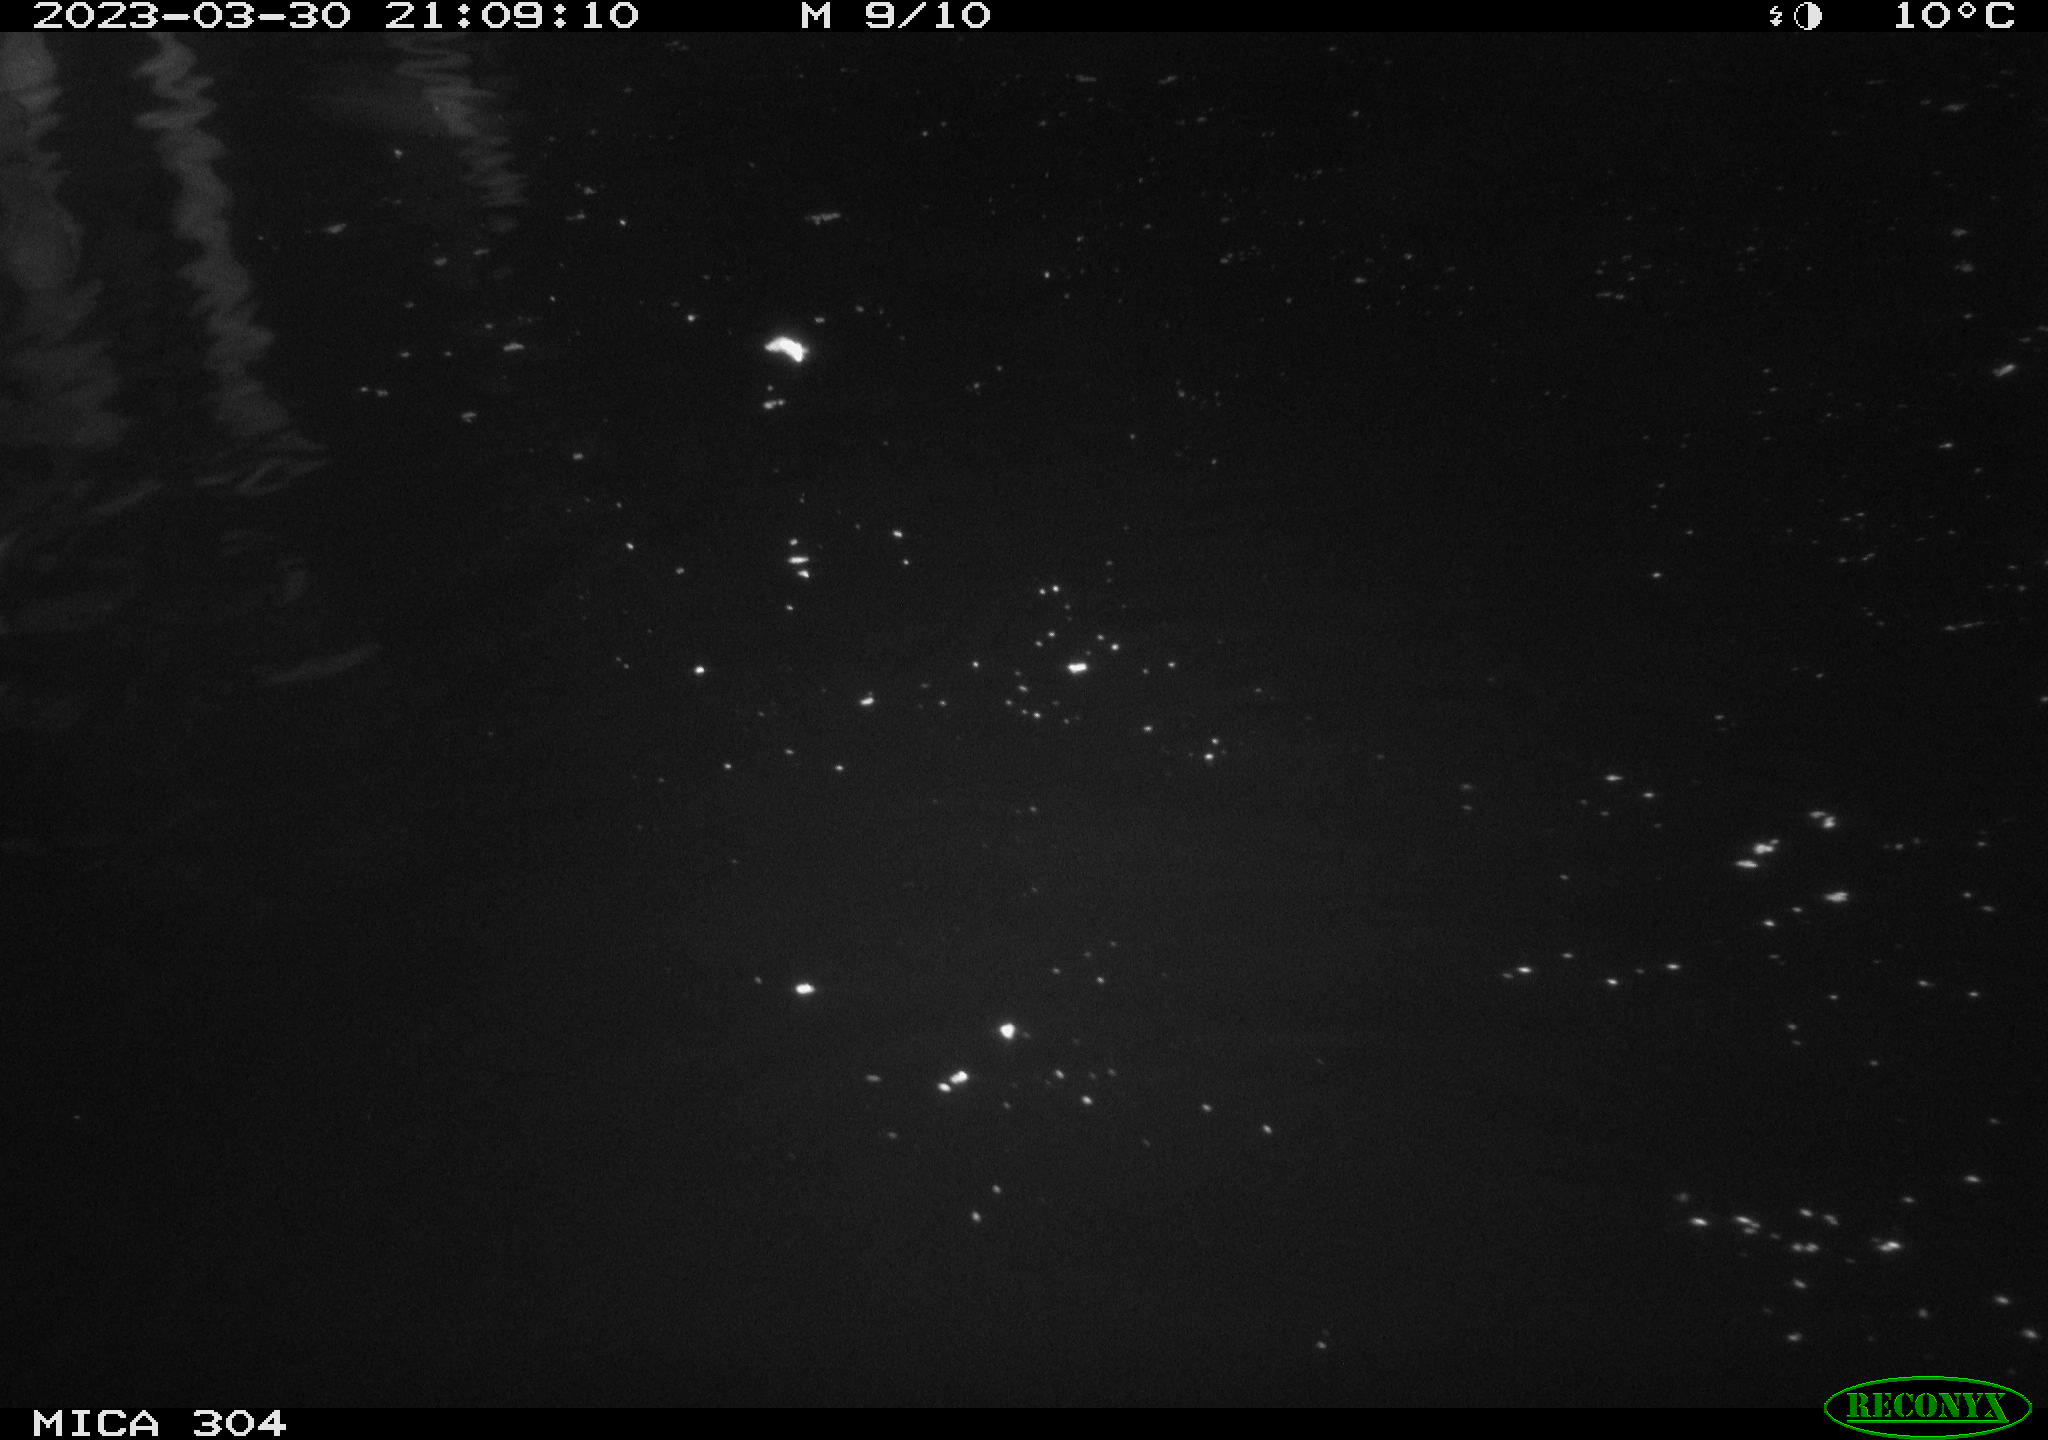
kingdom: Animalia
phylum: Chordata
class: Mammalia
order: Rodentia
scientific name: Rodentia
